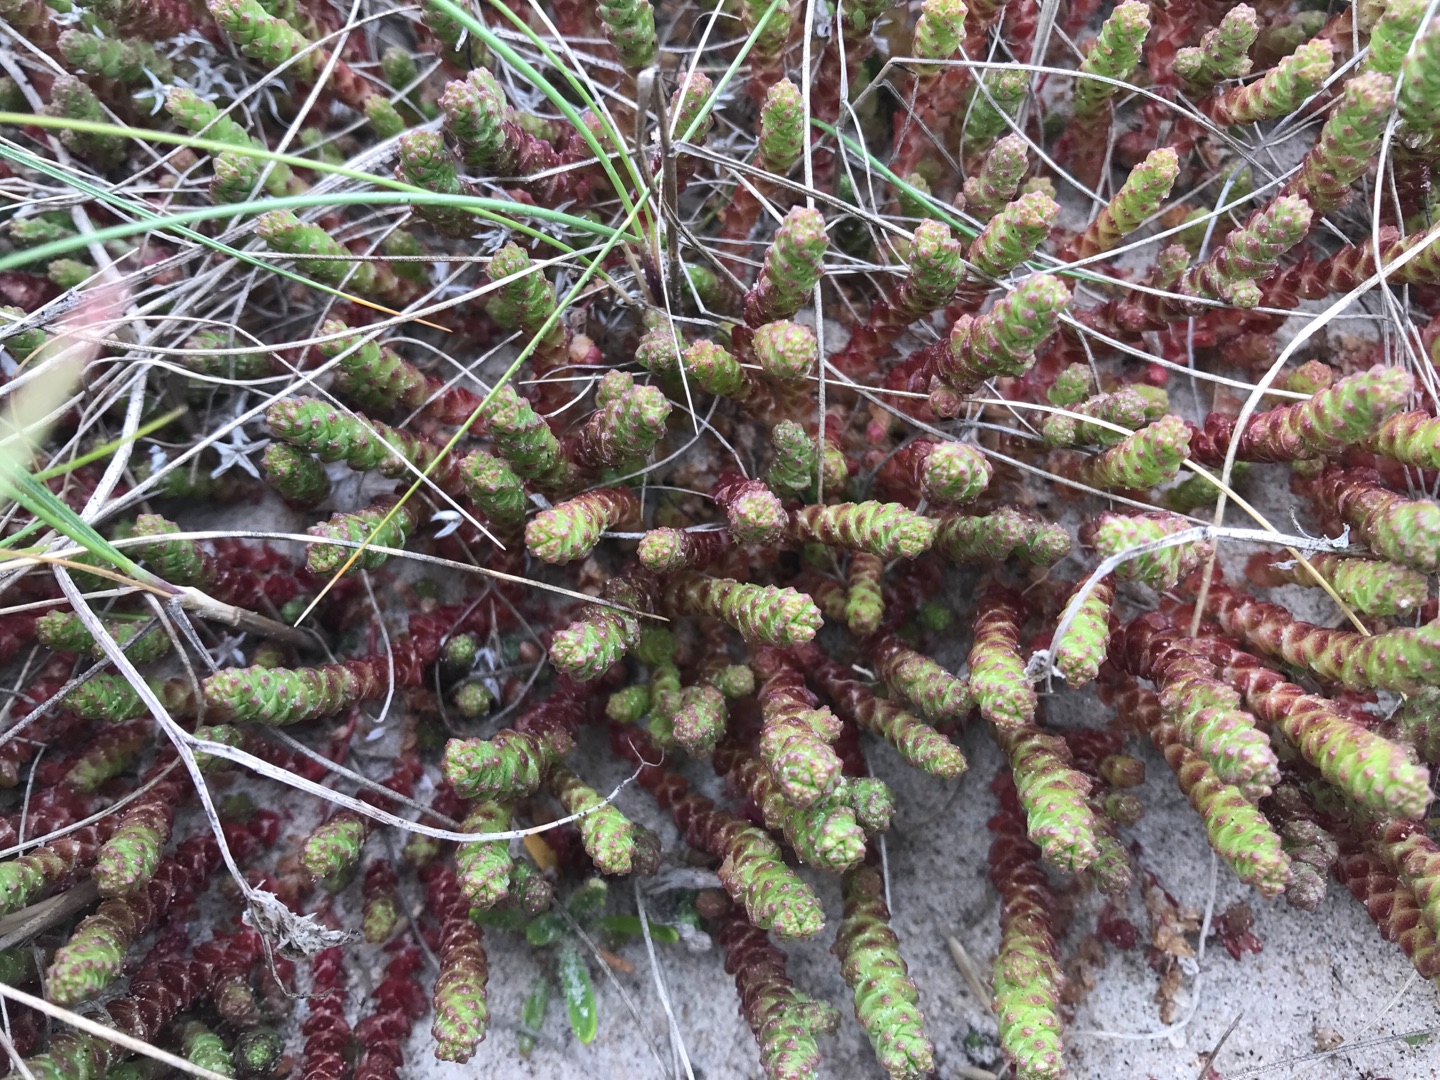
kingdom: Plantae
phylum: Tracheophyta
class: Magnoliopsida
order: Saxifragales
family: Crassulaceae
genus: Sedum
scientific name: Sedum acre
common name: Bidende stenurt
